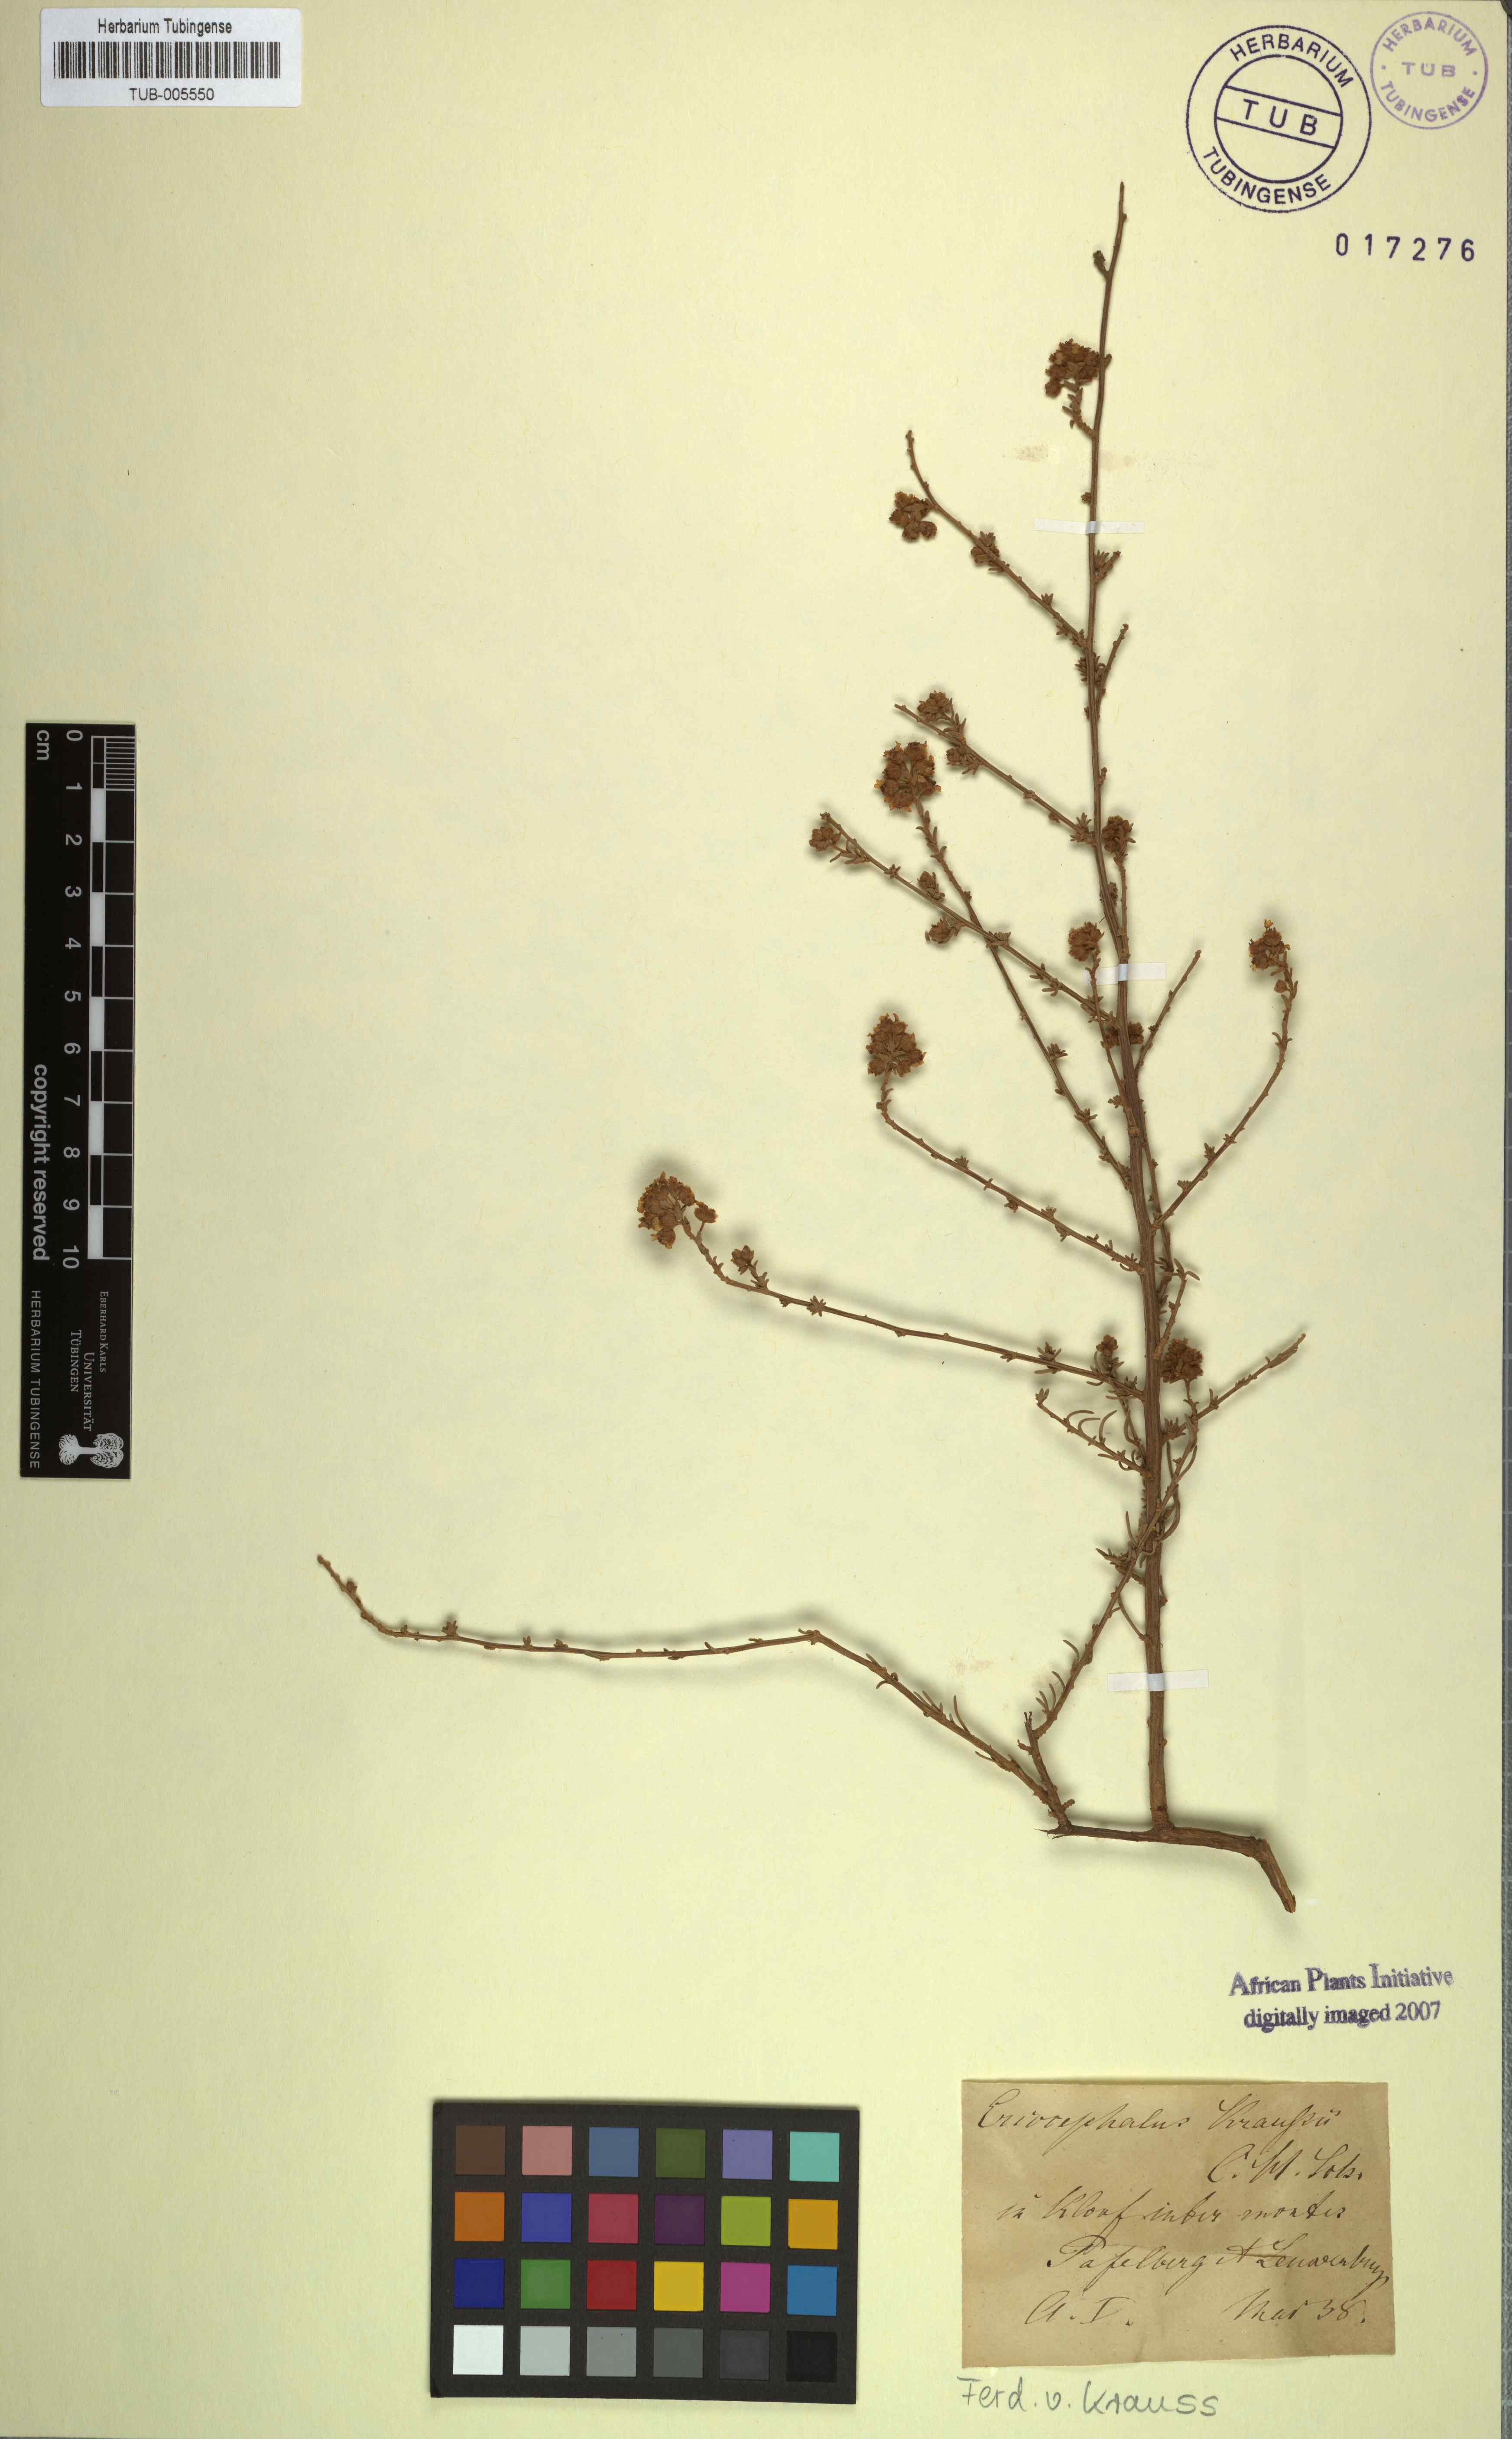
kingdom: Plantae
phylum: Tracheophyta
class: Magnoliopsida
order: Asterales
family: Asteraceae
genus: Eriocephalus
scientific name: Eriocephalus
